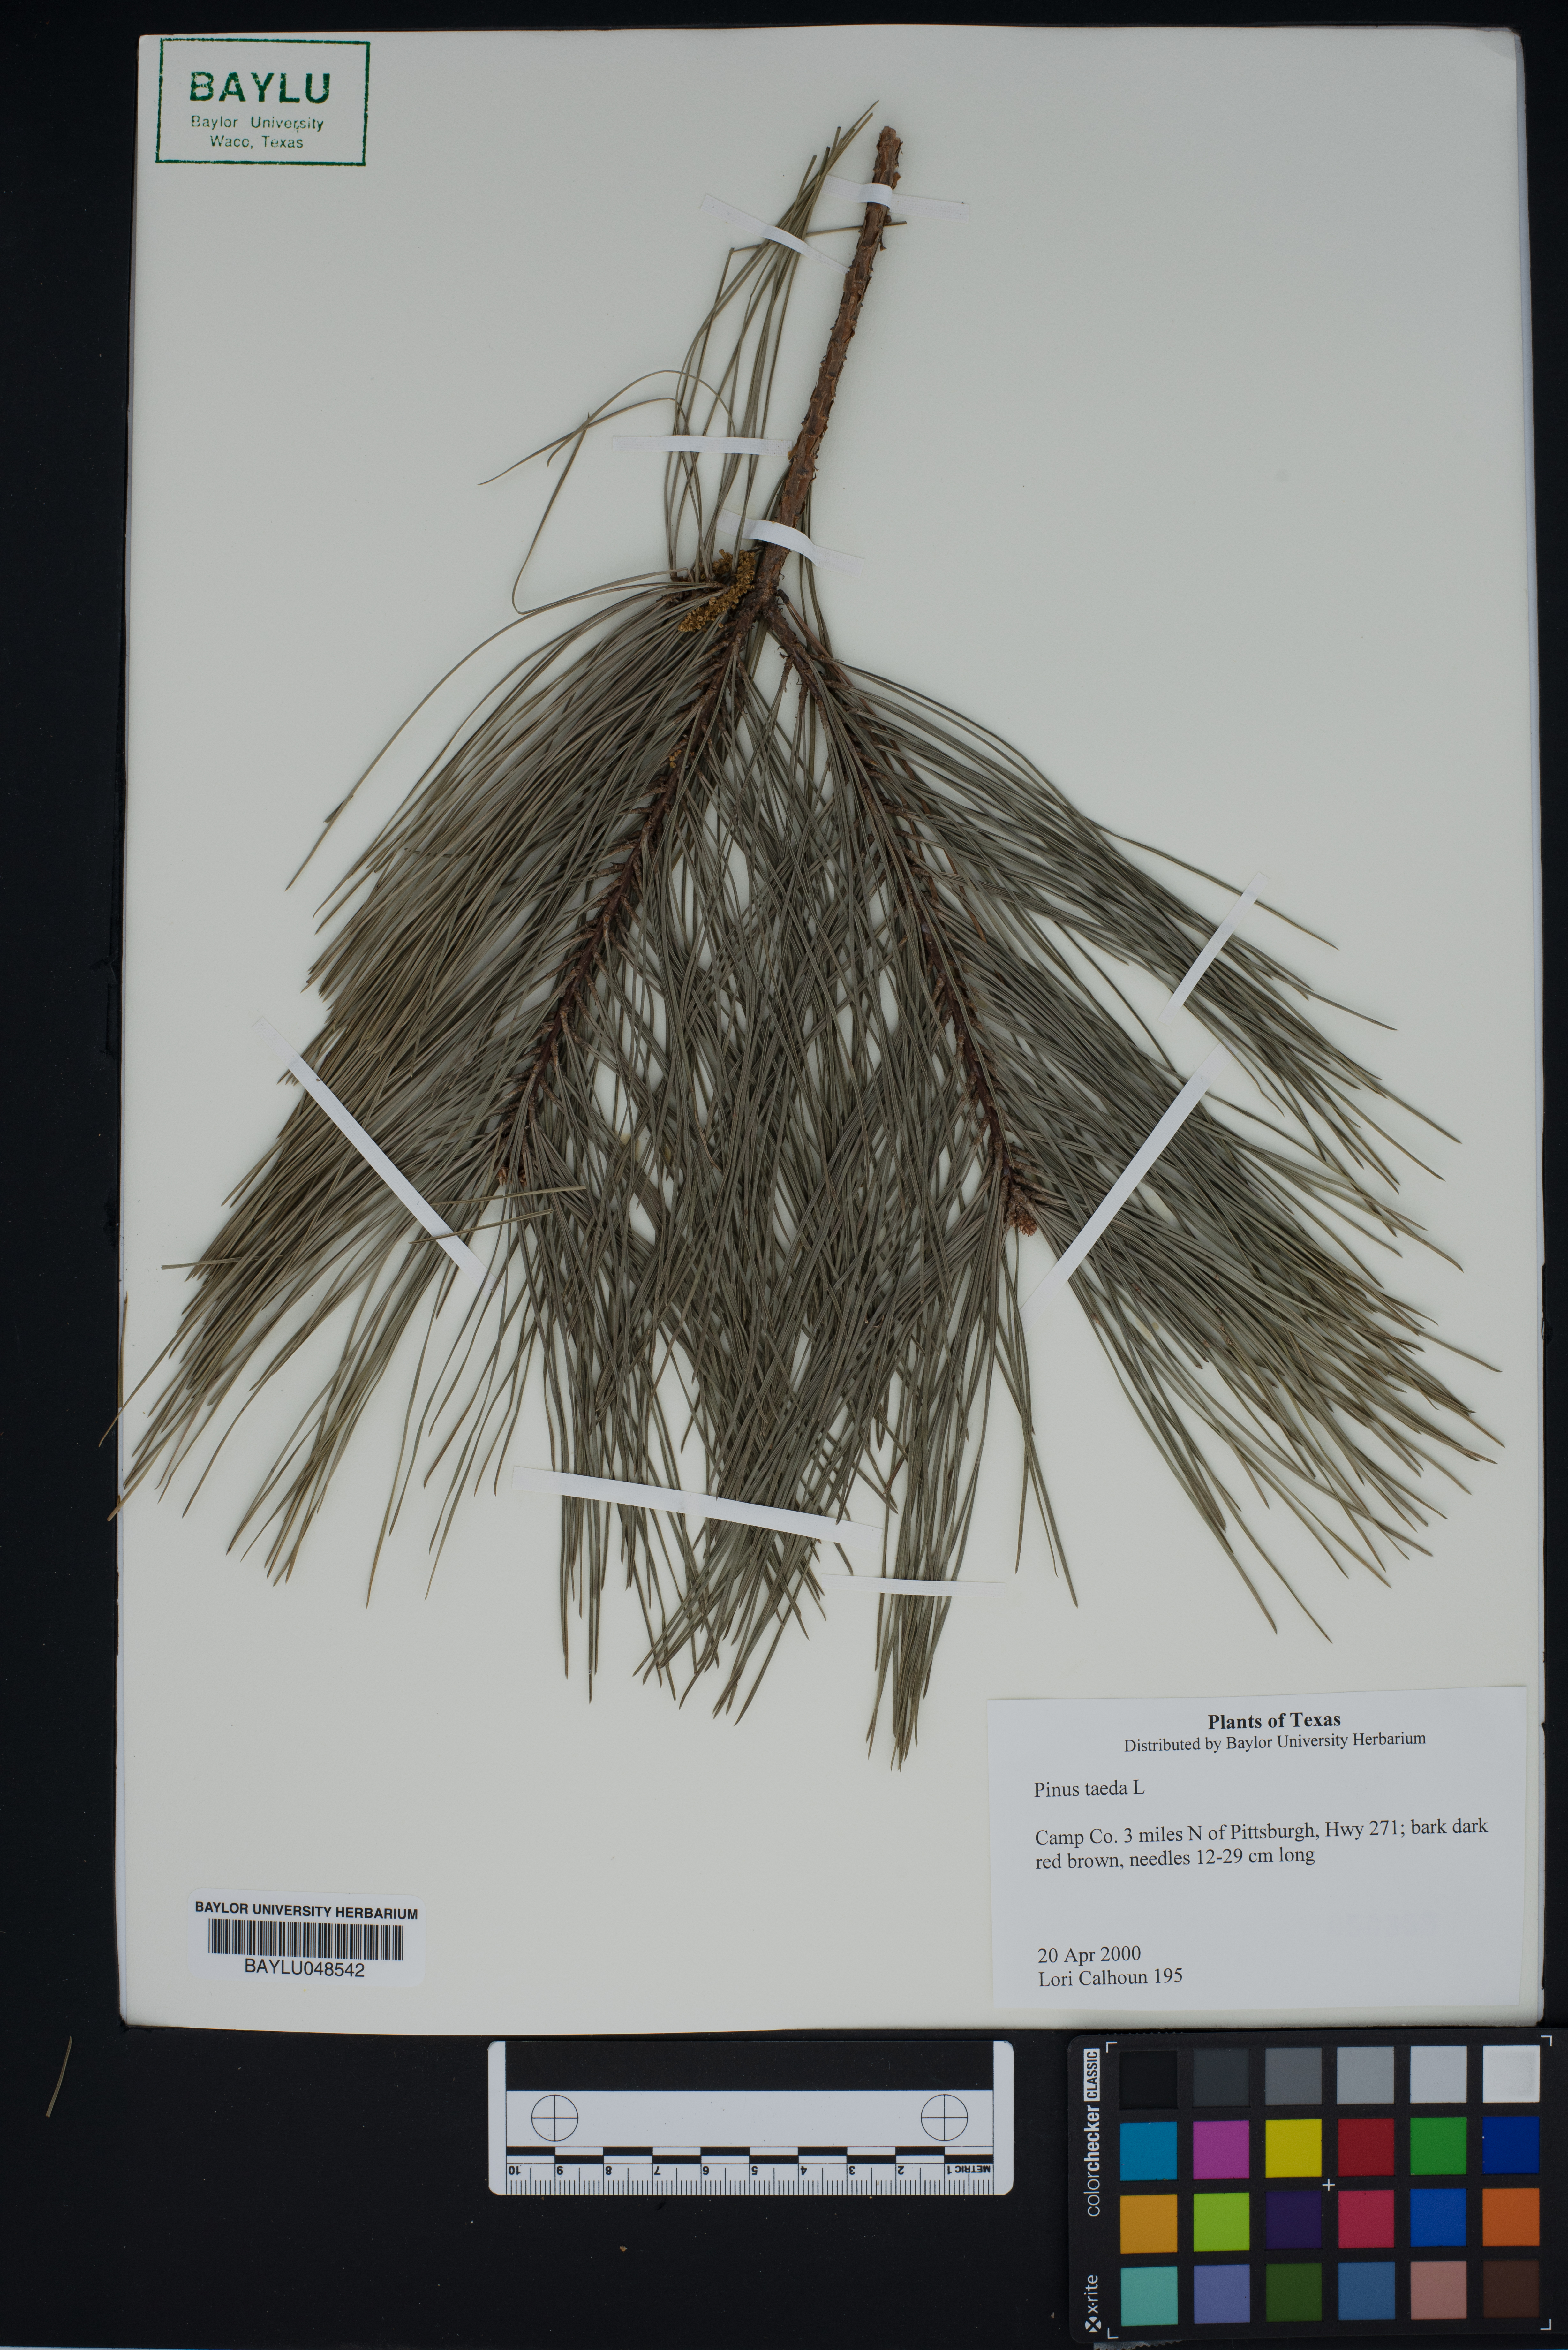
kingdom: Plantae
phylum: Tracheophyta
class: Pinopsida
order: Pinales
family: Pinaceae
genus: Pinus
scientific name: Pinus taeda
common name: Loblolly pine
